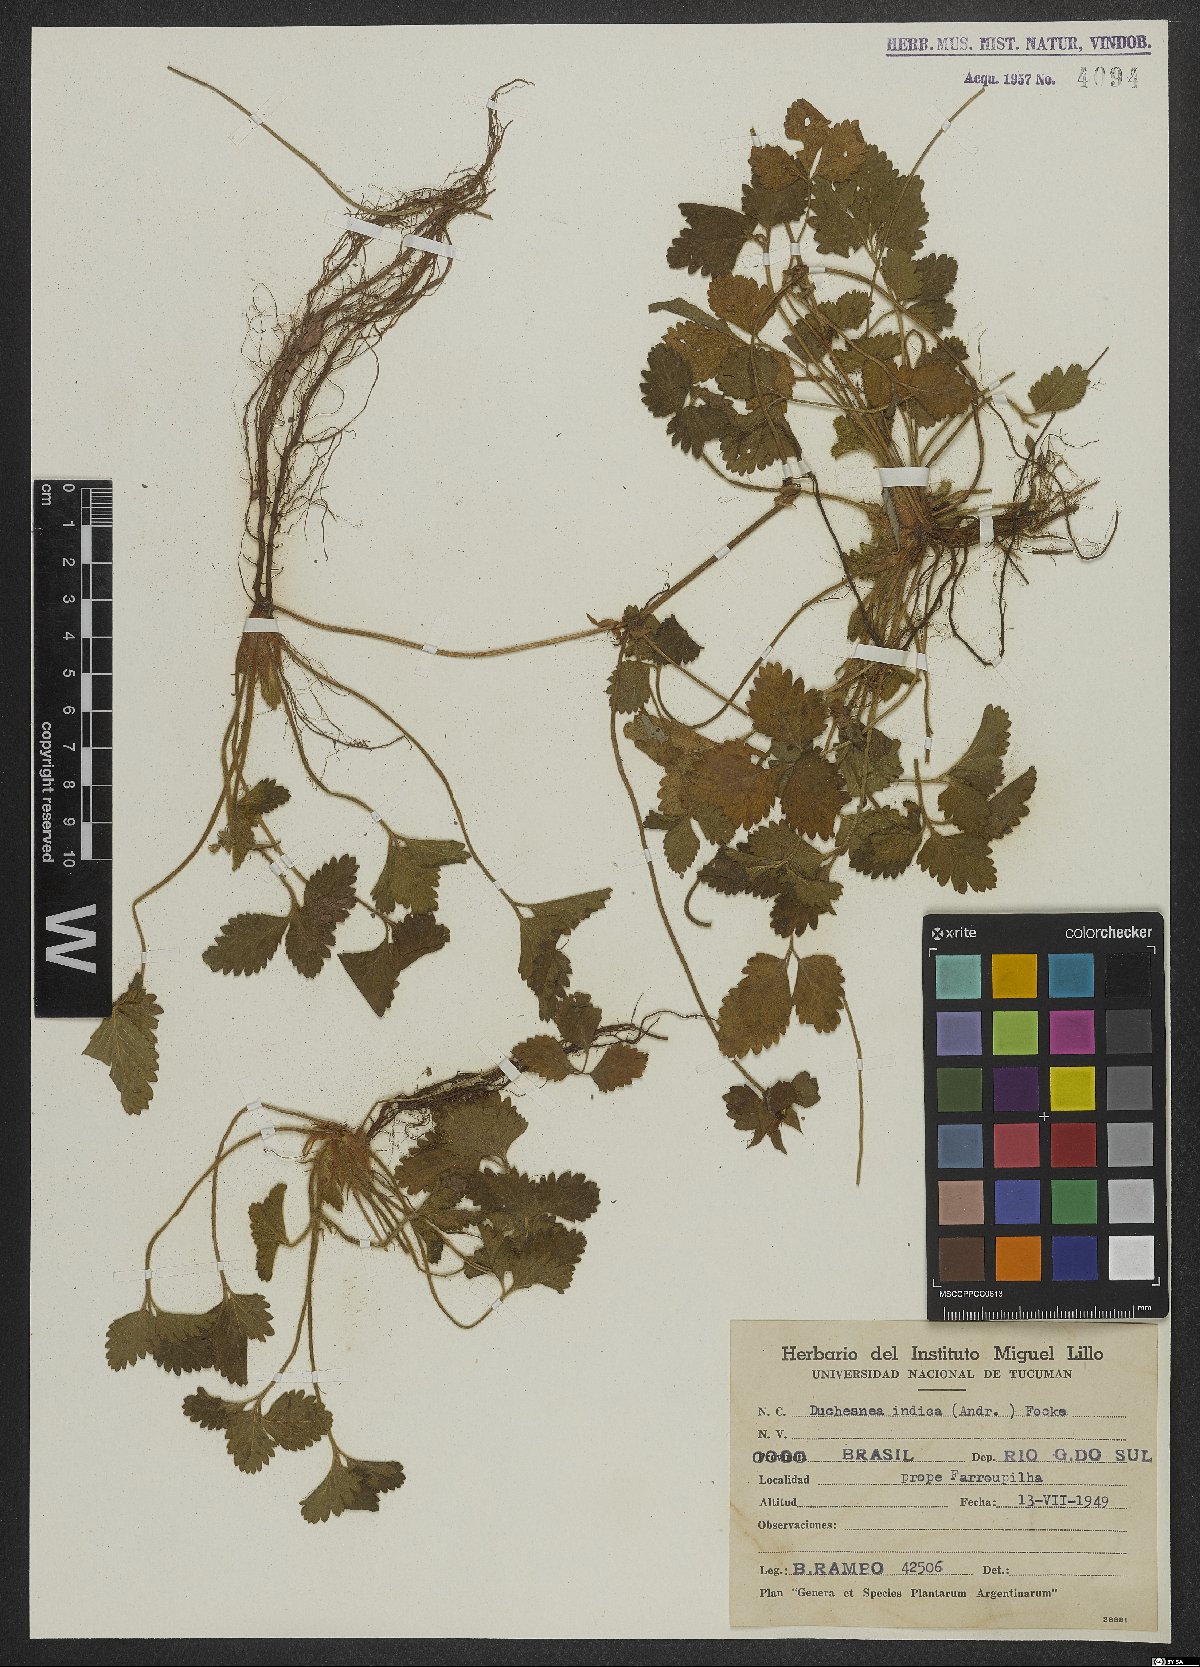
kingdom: Plantae
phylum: Tracheophyta
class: Magnoliopsida
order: Rosales
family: Rosaceae
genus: Potentilla
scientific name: Potentilla indica
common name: Yellow-flowered strawberry
